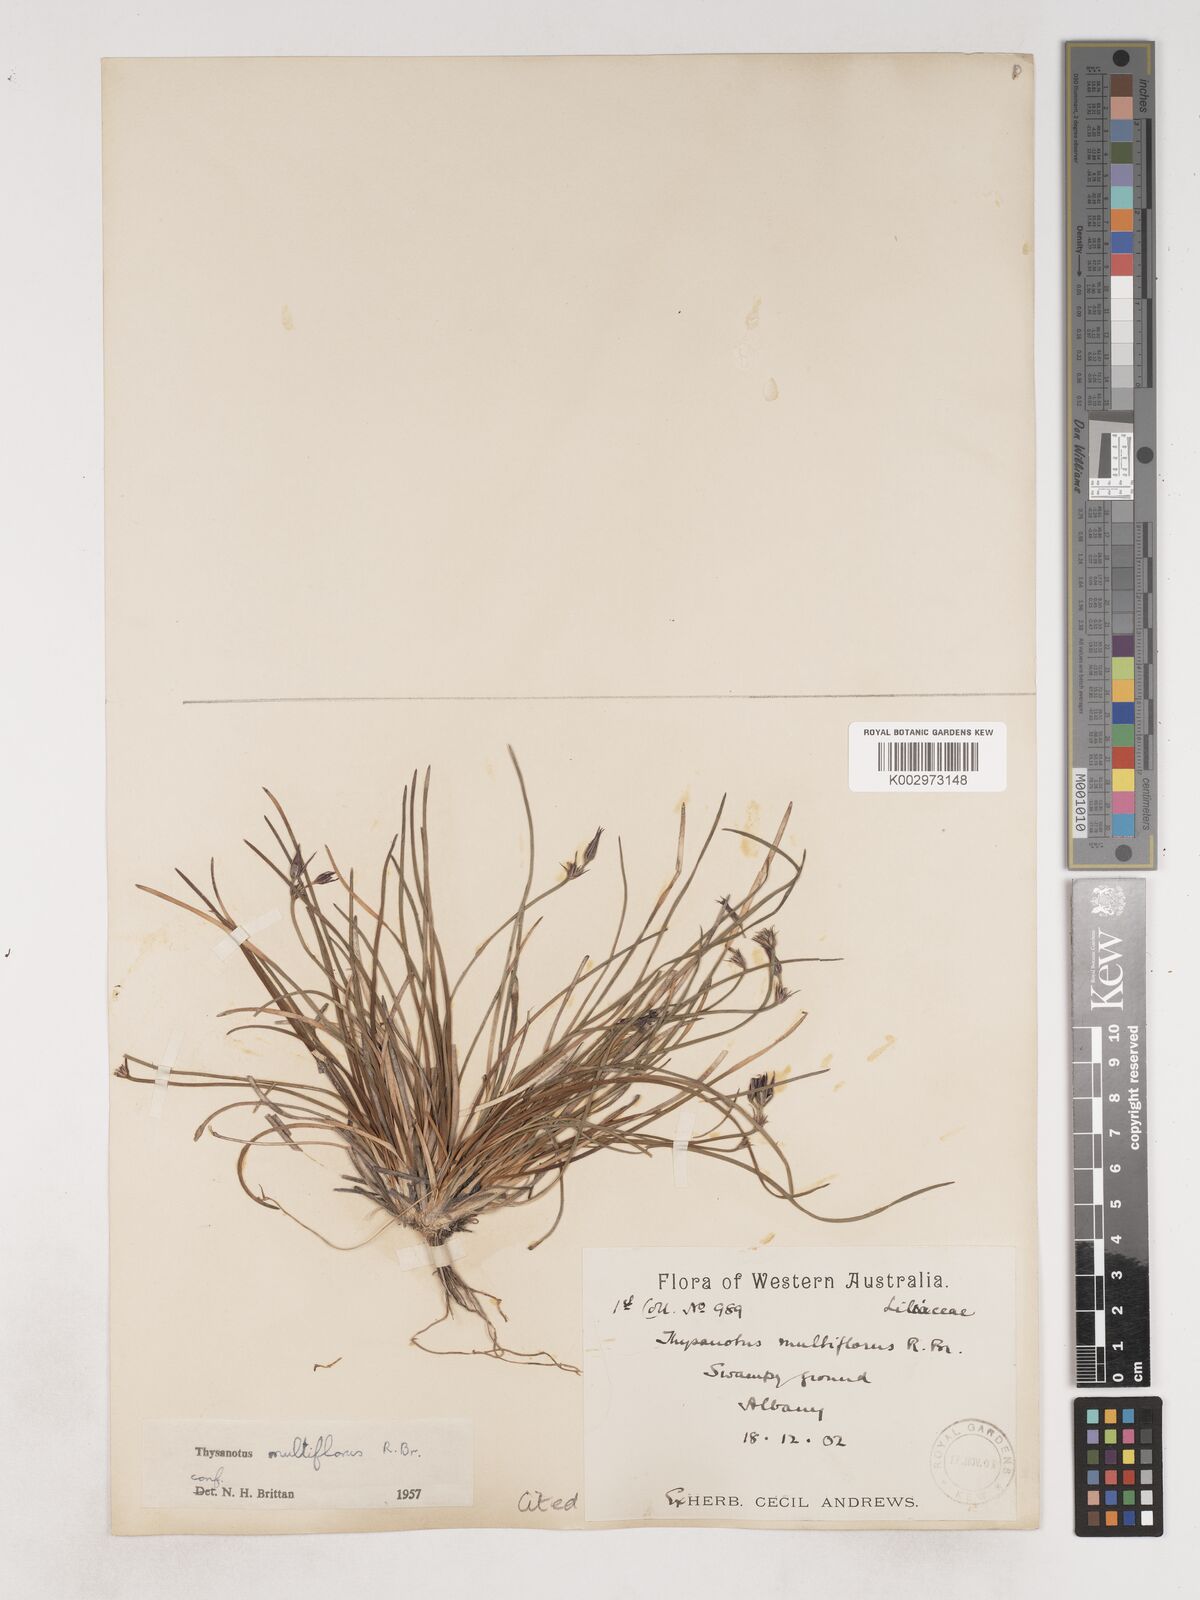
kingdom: Plantae
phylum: Tracheophyta
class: Liliopsida
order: Asparagales
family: Asparagaceae
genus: Thysanotus
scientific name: Thysanotus multiflorus
